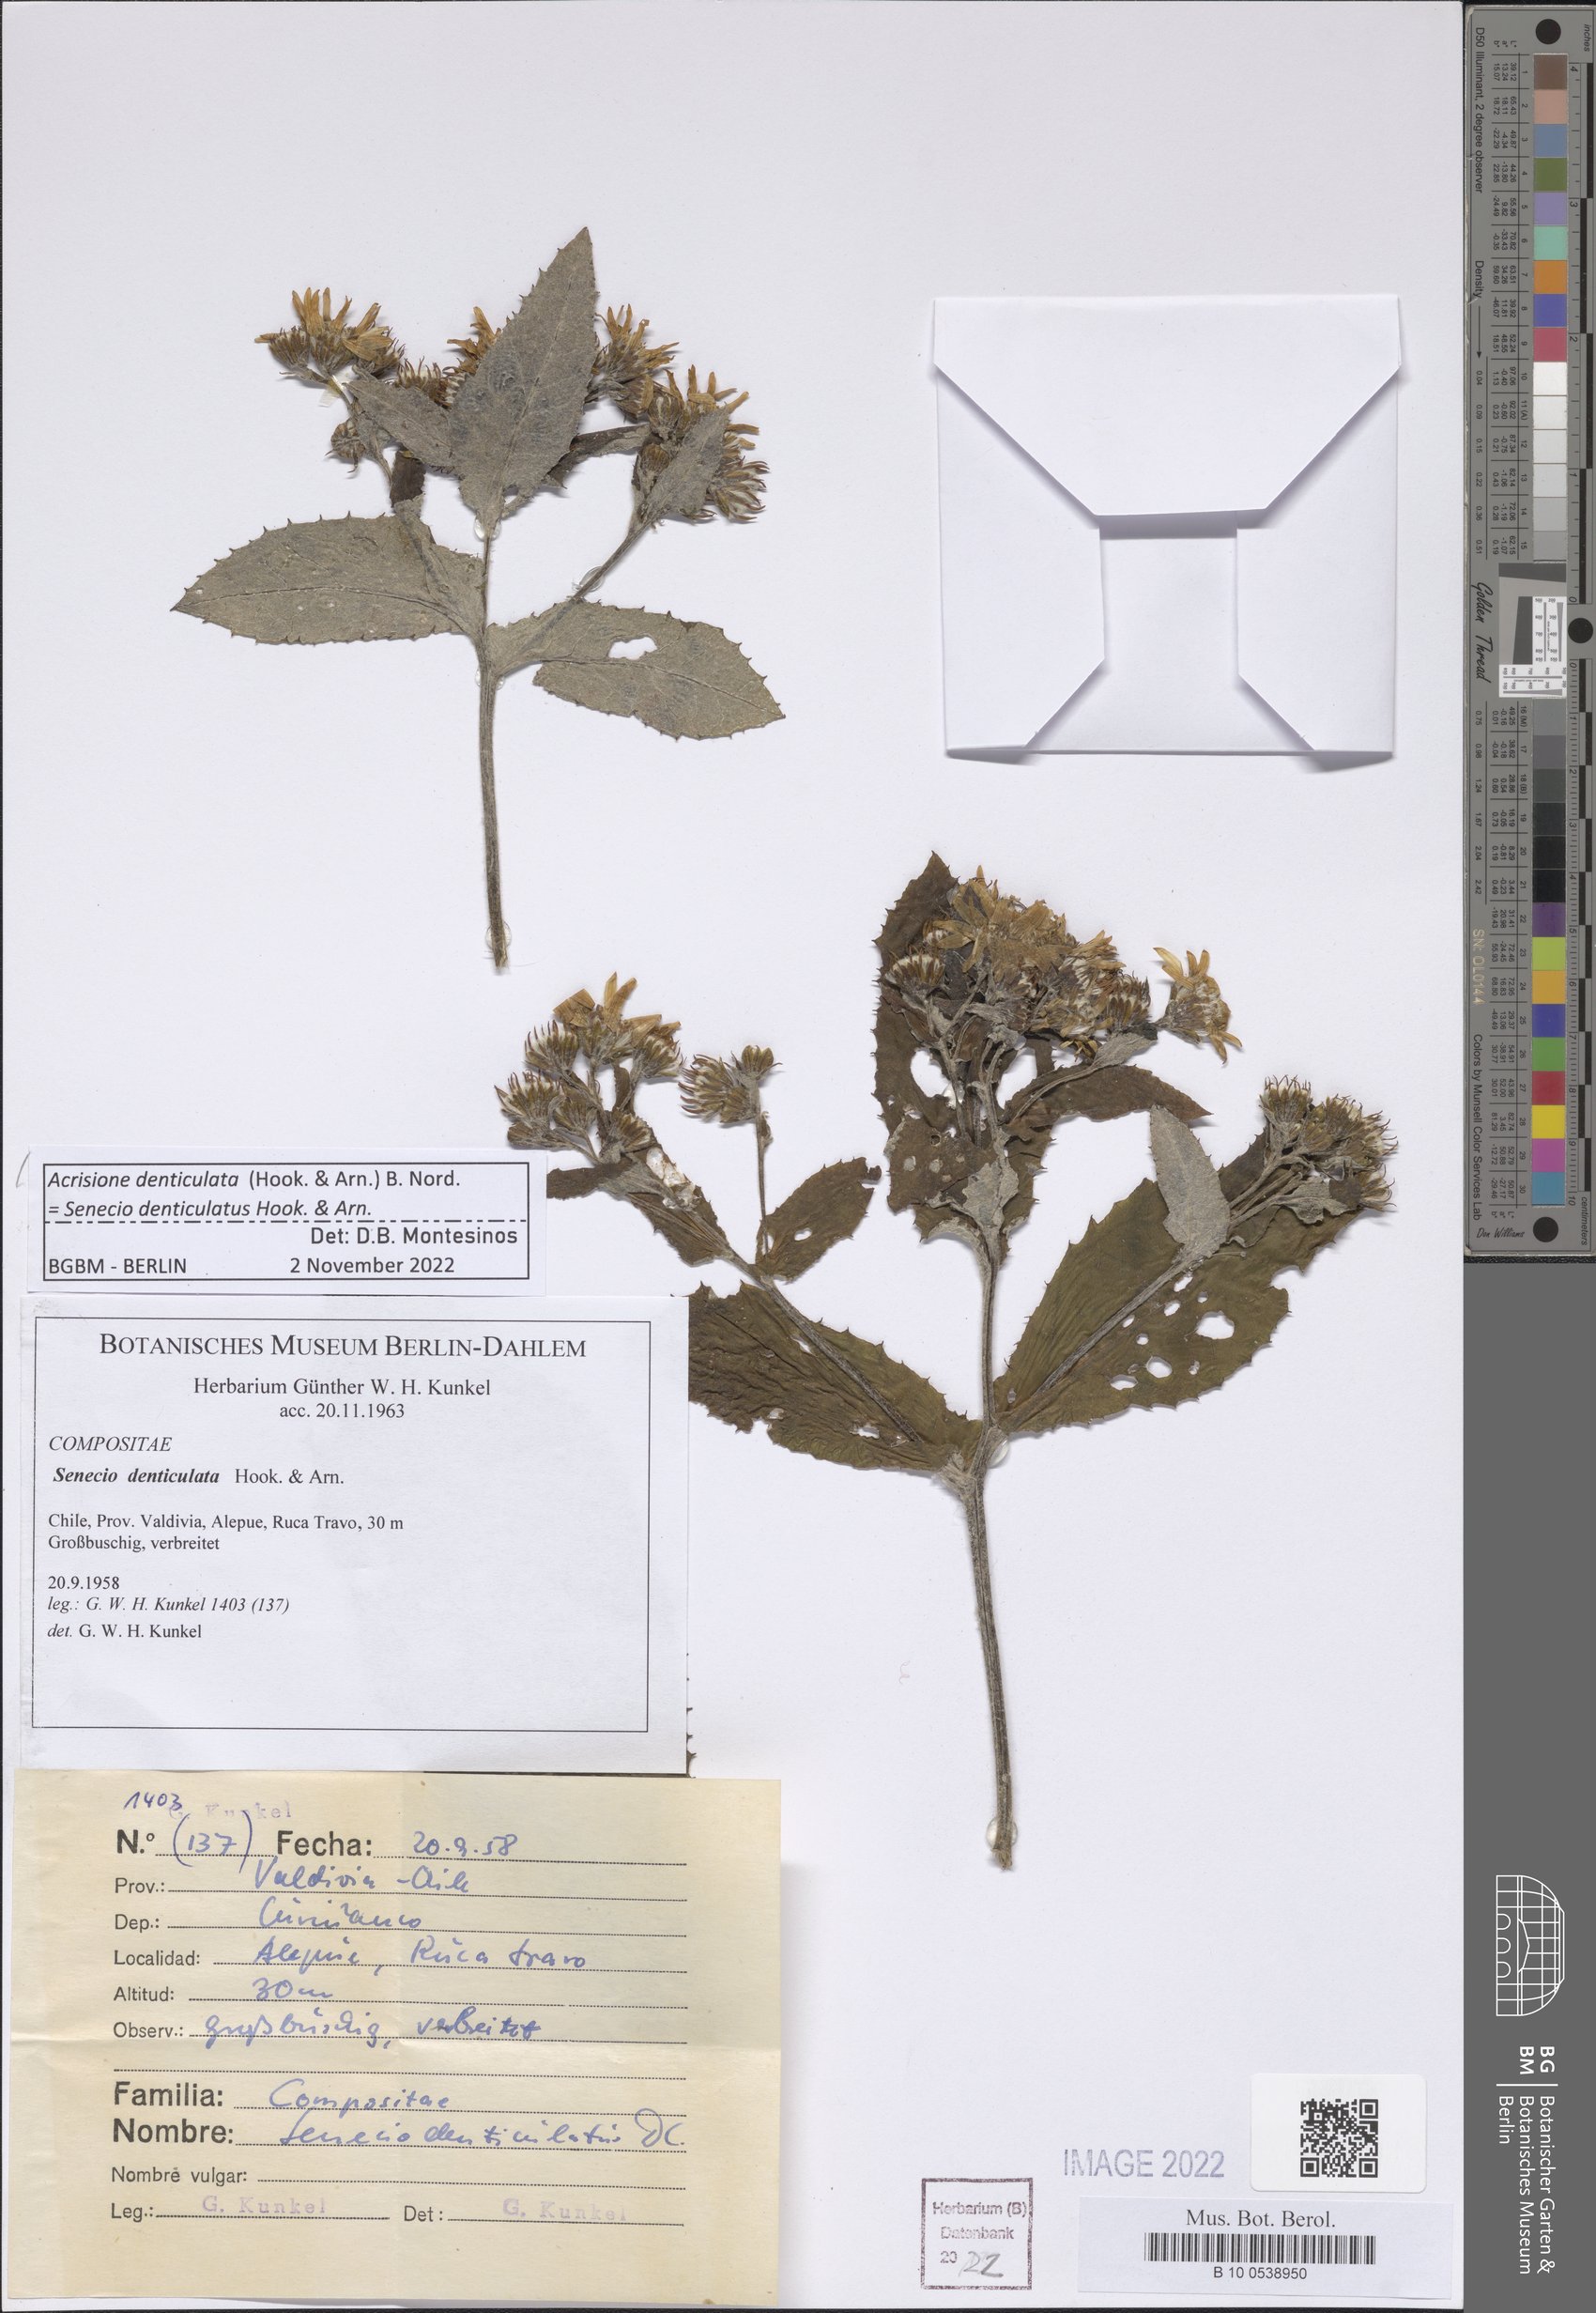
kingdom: Plantae
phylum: Tracheophyta
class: Magnoliopsida
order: Asterales
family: Asteraceae
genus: Acrisione
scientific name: Acrisione denticulata
